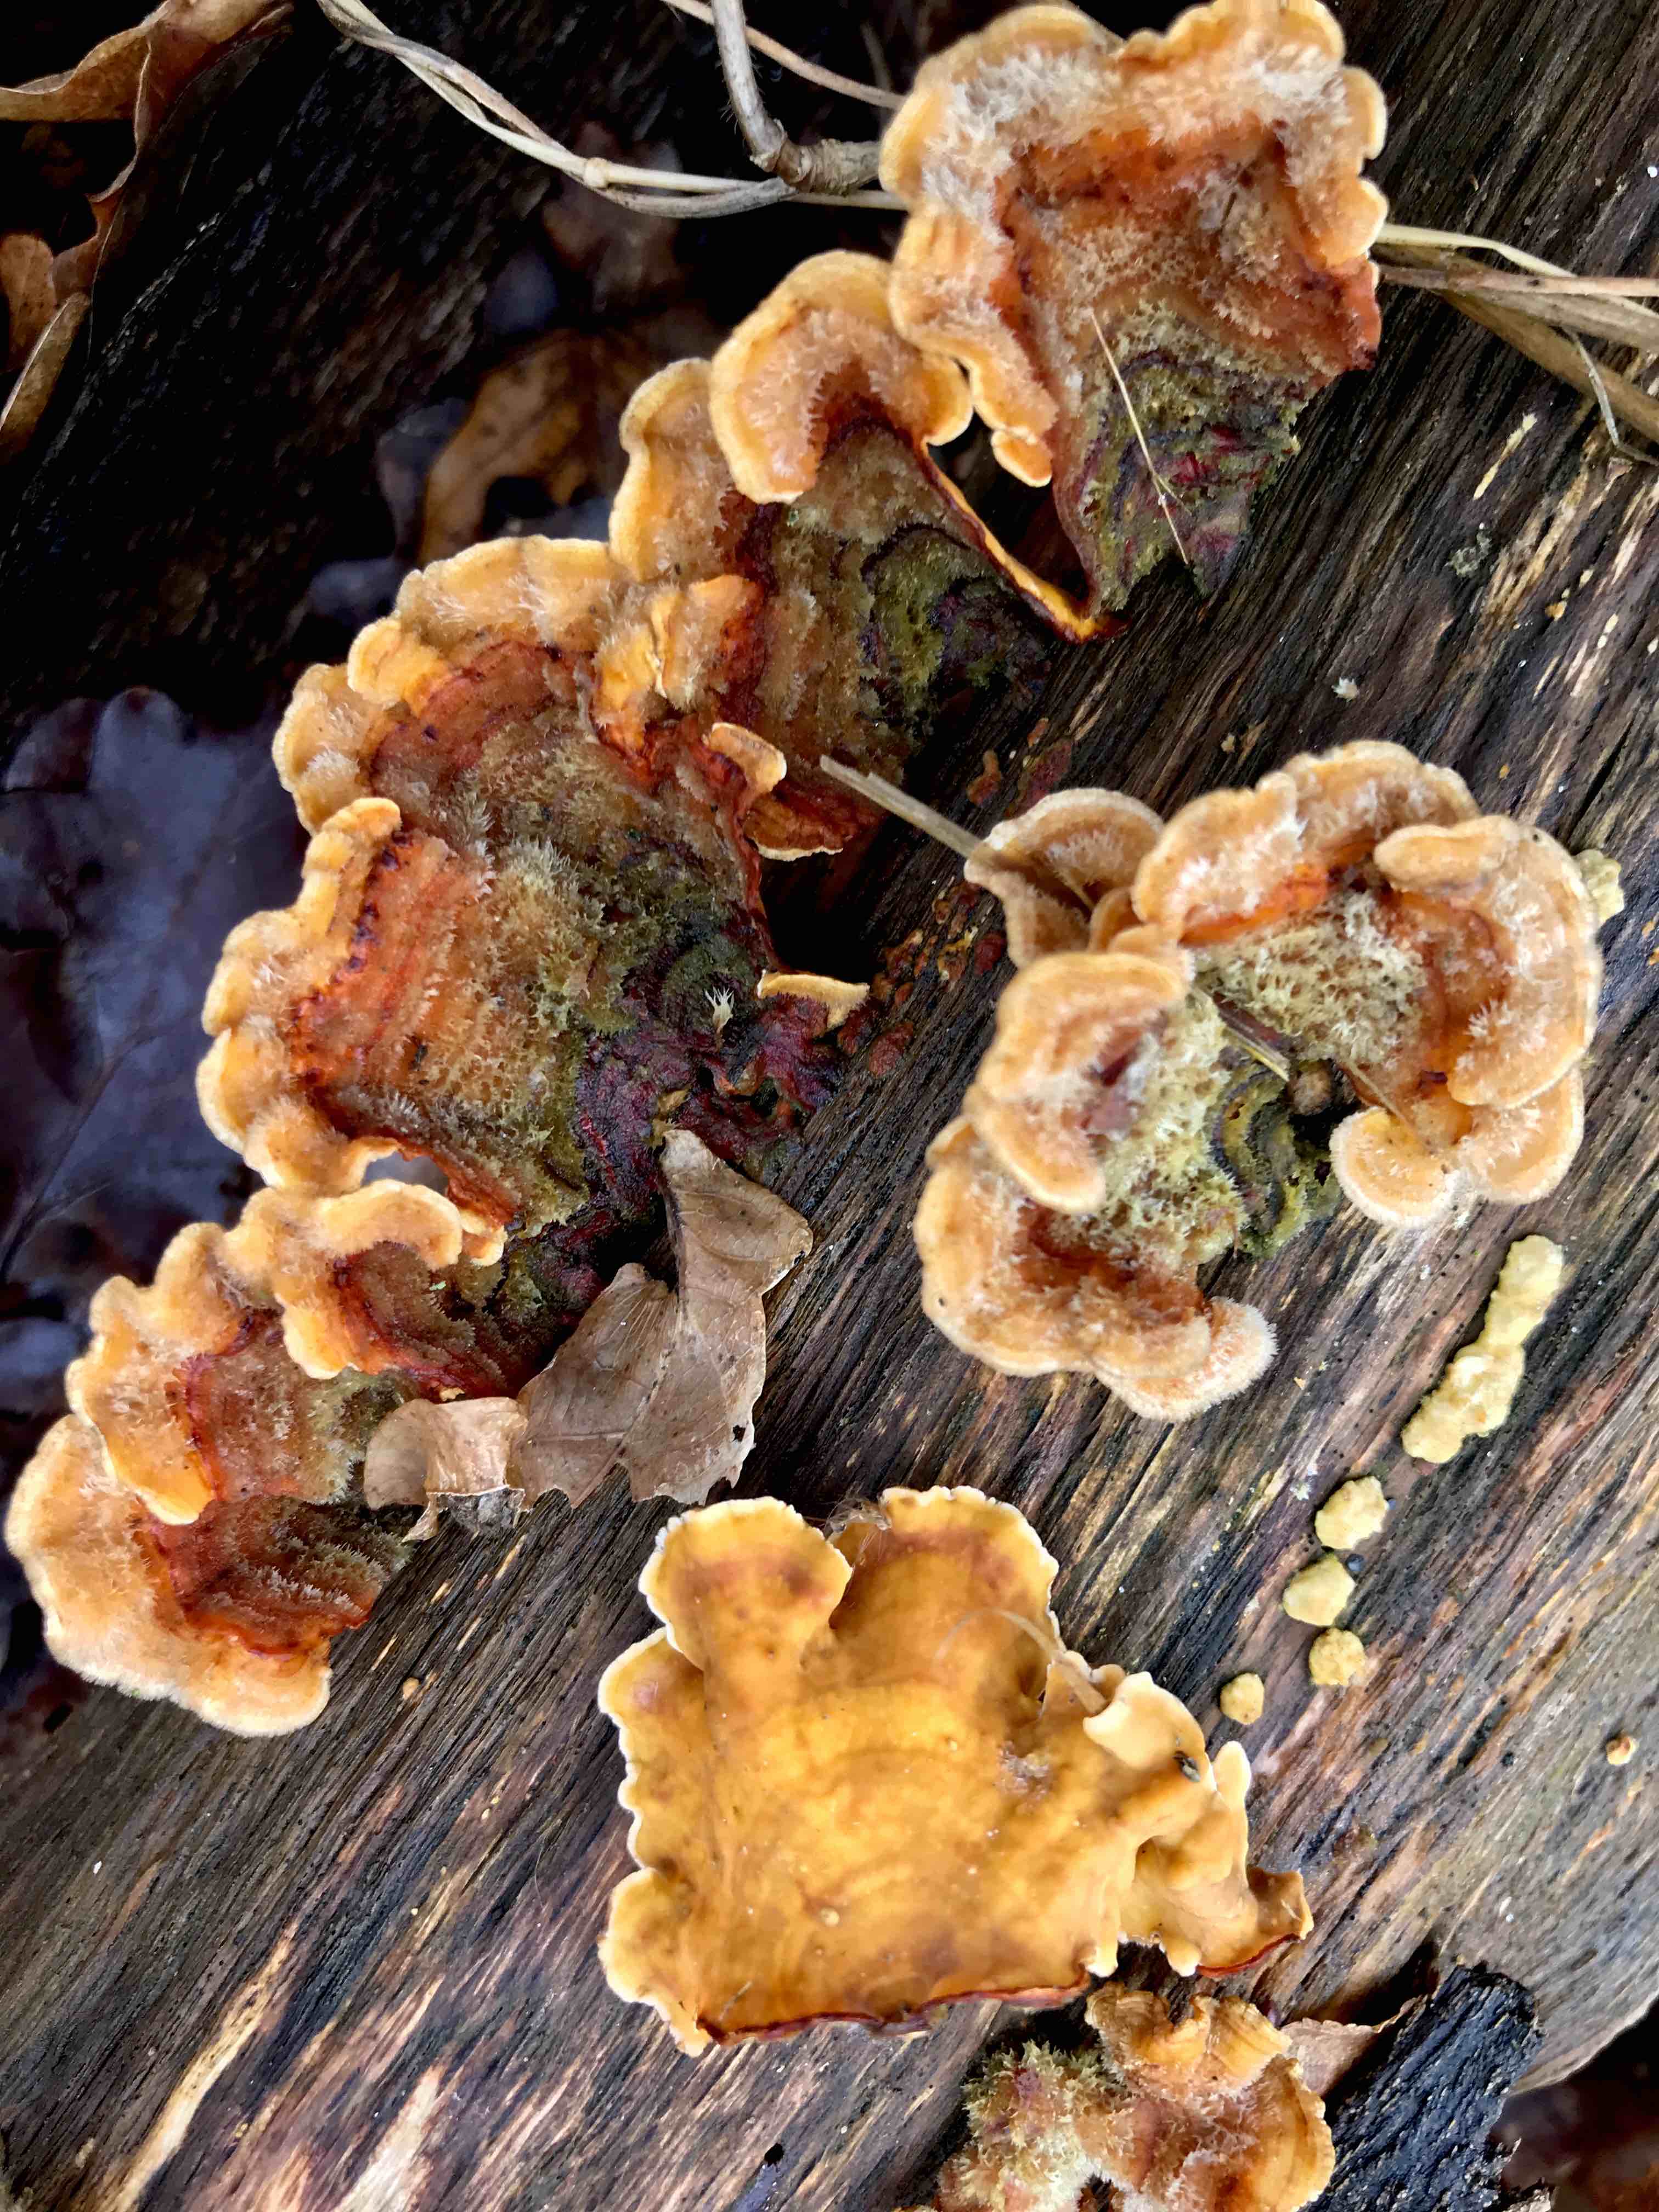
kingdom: Fungi
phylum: Basidiomycota
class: Agaricomycetes
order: Russulales
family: Stereaceae
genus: Stereum
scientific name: Stereum subtomentosum
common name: smuk lædersvamp
